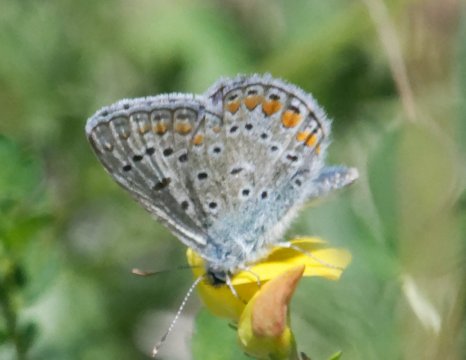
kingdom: Animalia
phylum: Arthropoda
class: Insecta
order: Lepidoptera
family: Lycaenidae
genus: Polyommatus
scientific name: Polyommatus icarus
